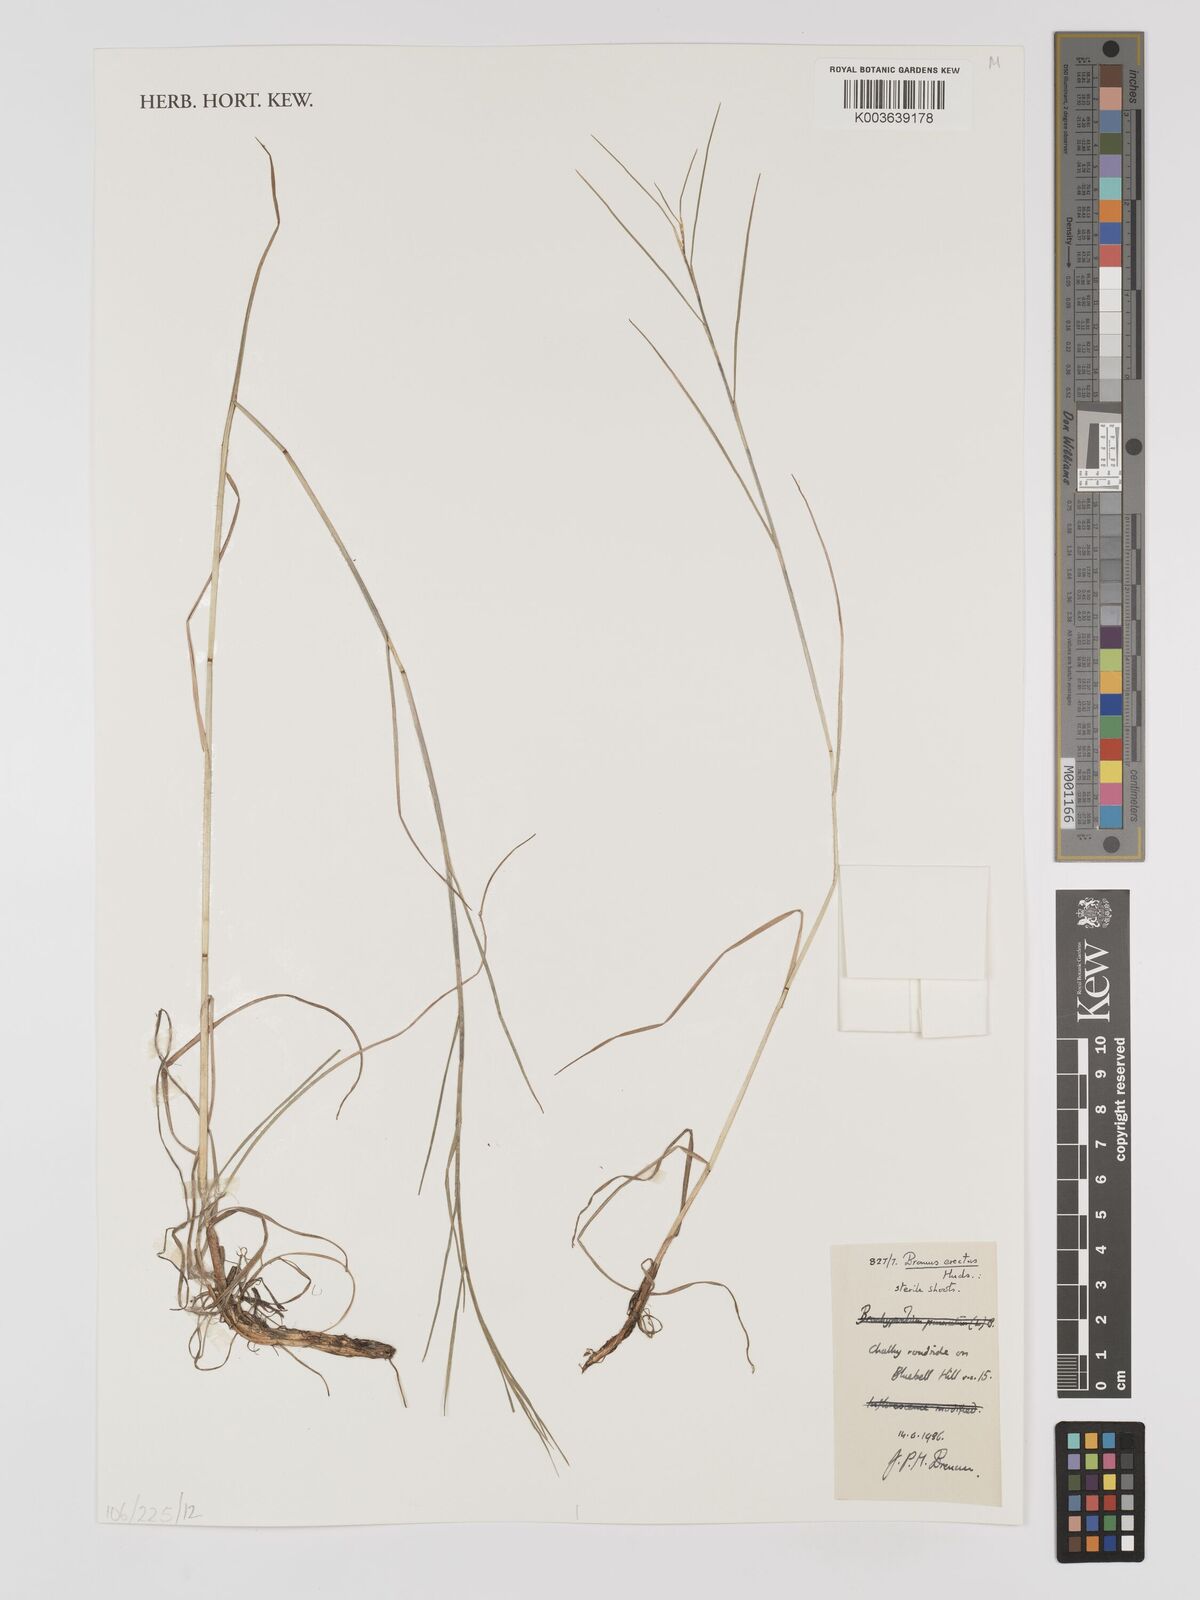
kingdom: Plantae
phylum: Tracheophyta
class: Liliopsida
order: Poales
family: Poaceae
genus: Bromus
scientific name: Bromus erectus
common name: Erect brome
